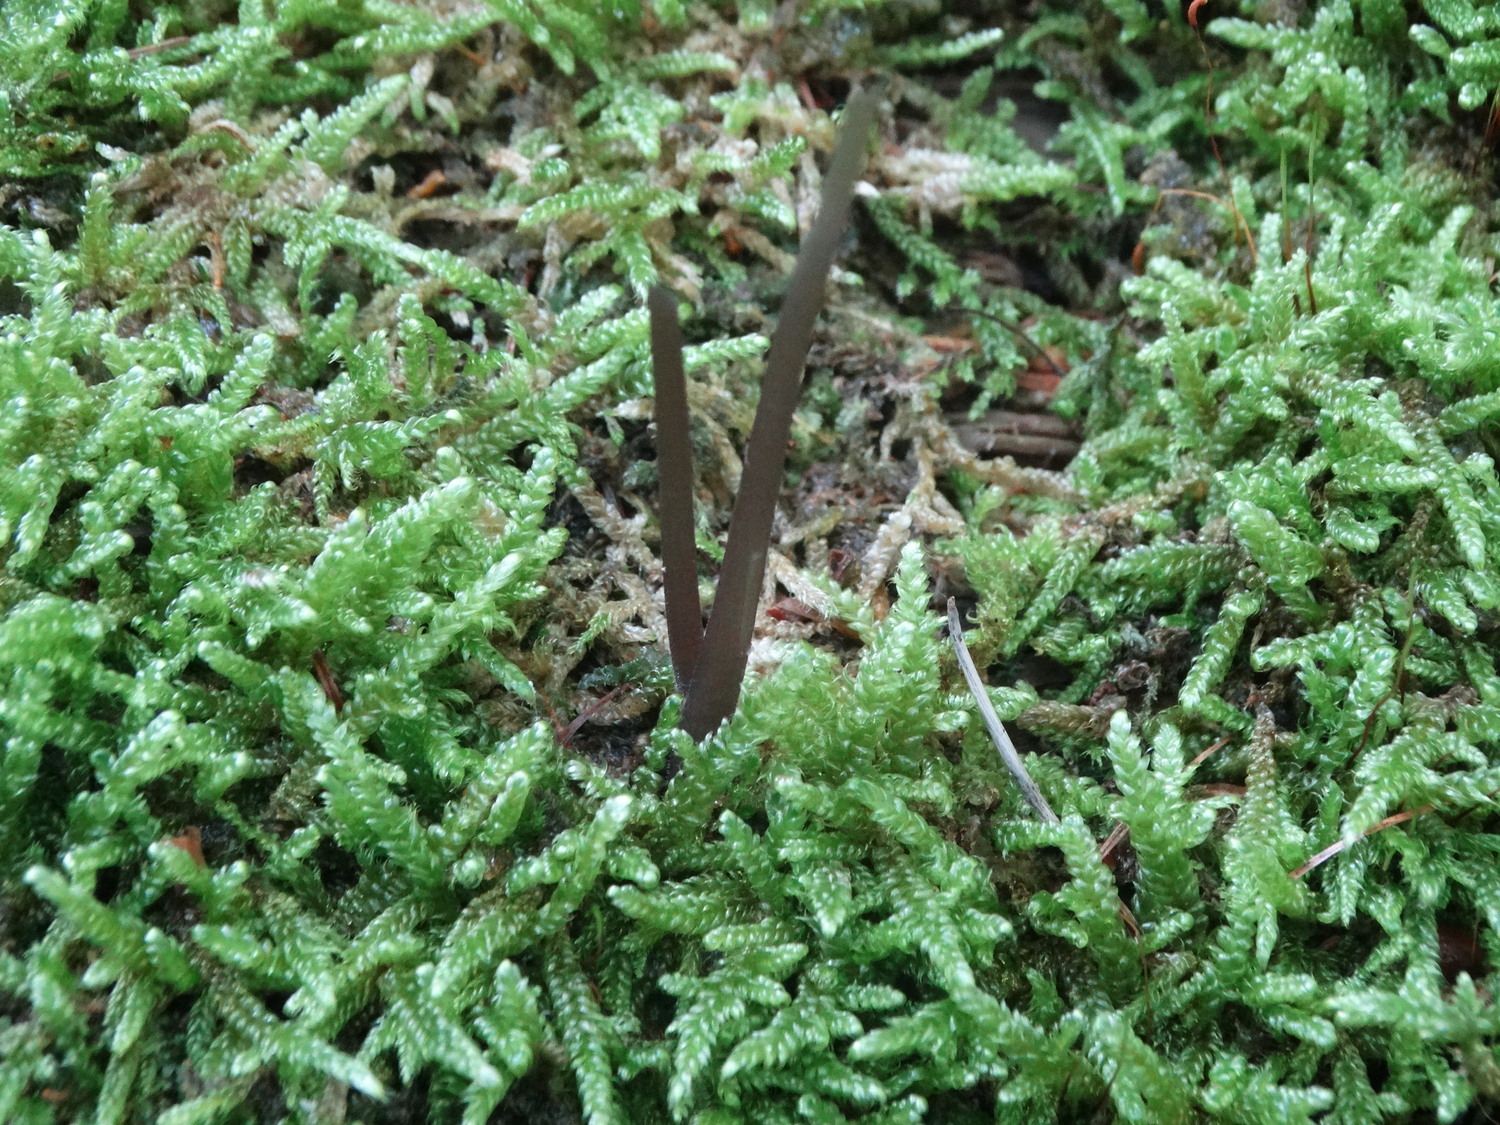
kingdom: Fungi
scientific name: Fungi
